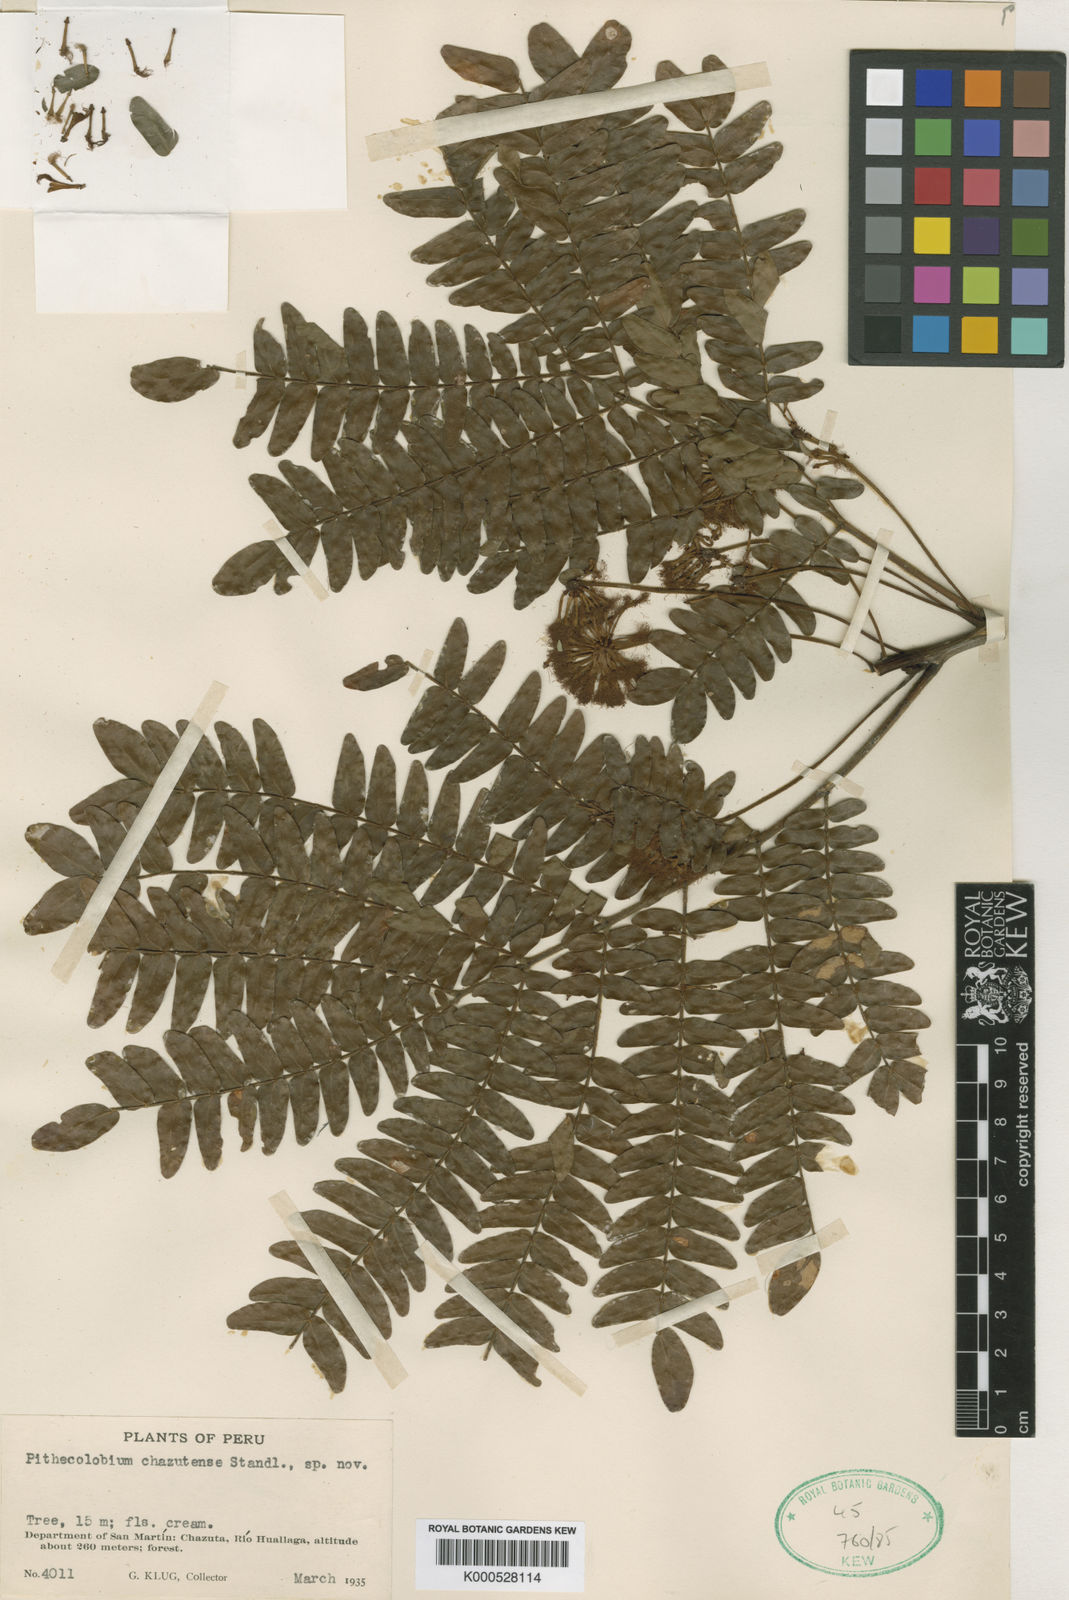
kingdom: Plantae
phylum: Tracheophyta
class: Magnoliopsida
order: Fabales
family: Fabaceae
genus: Cojoba
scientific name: Cojoba chazutensis
